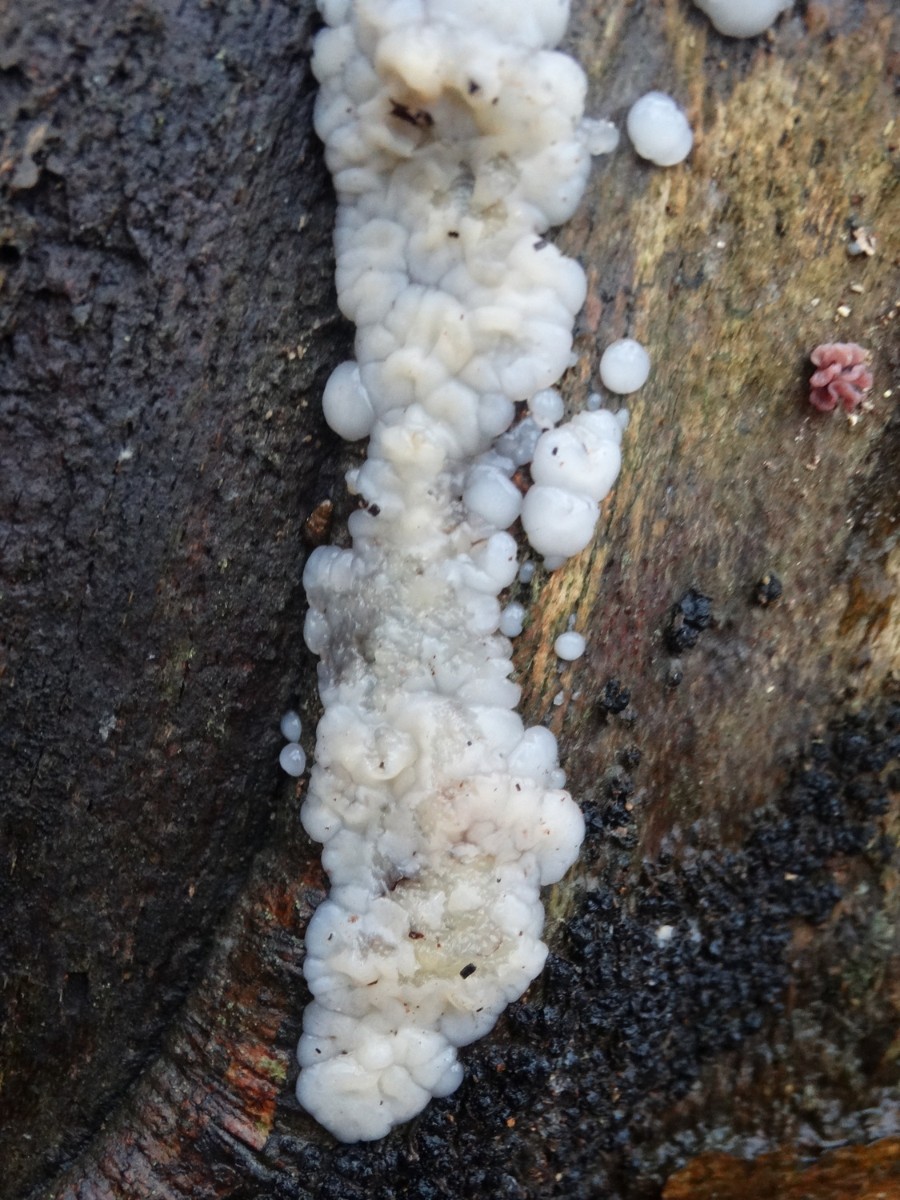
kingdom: Fungi
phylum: Basidiomycota
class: Agaricomycetes
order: Auriculariales
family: Auriculariaceae
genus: Exidia
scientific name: Exidia thuretiana
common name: hvidlig bævretop
